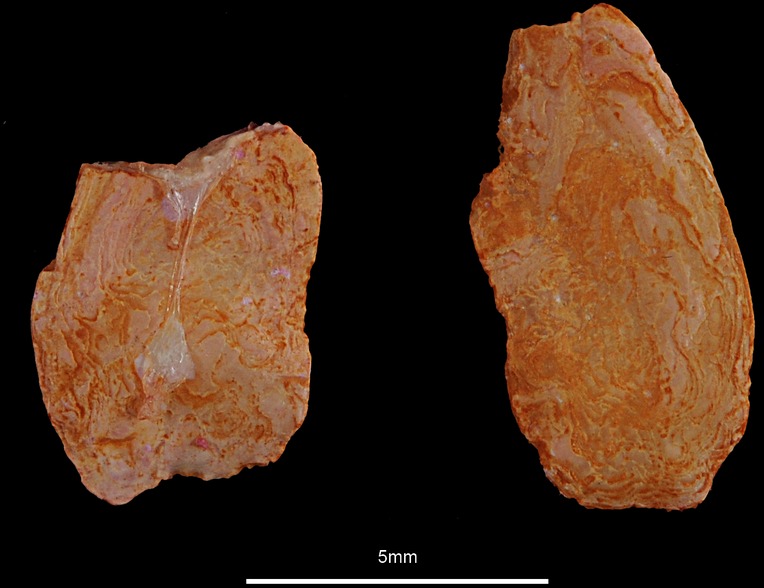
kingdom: Animalia
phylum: Chordata
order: Pleuronectiformes
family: Pleuronectidae
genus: Hippoglossus
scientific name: Hippoglossus hippoglossus
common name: Atlantic halibut
